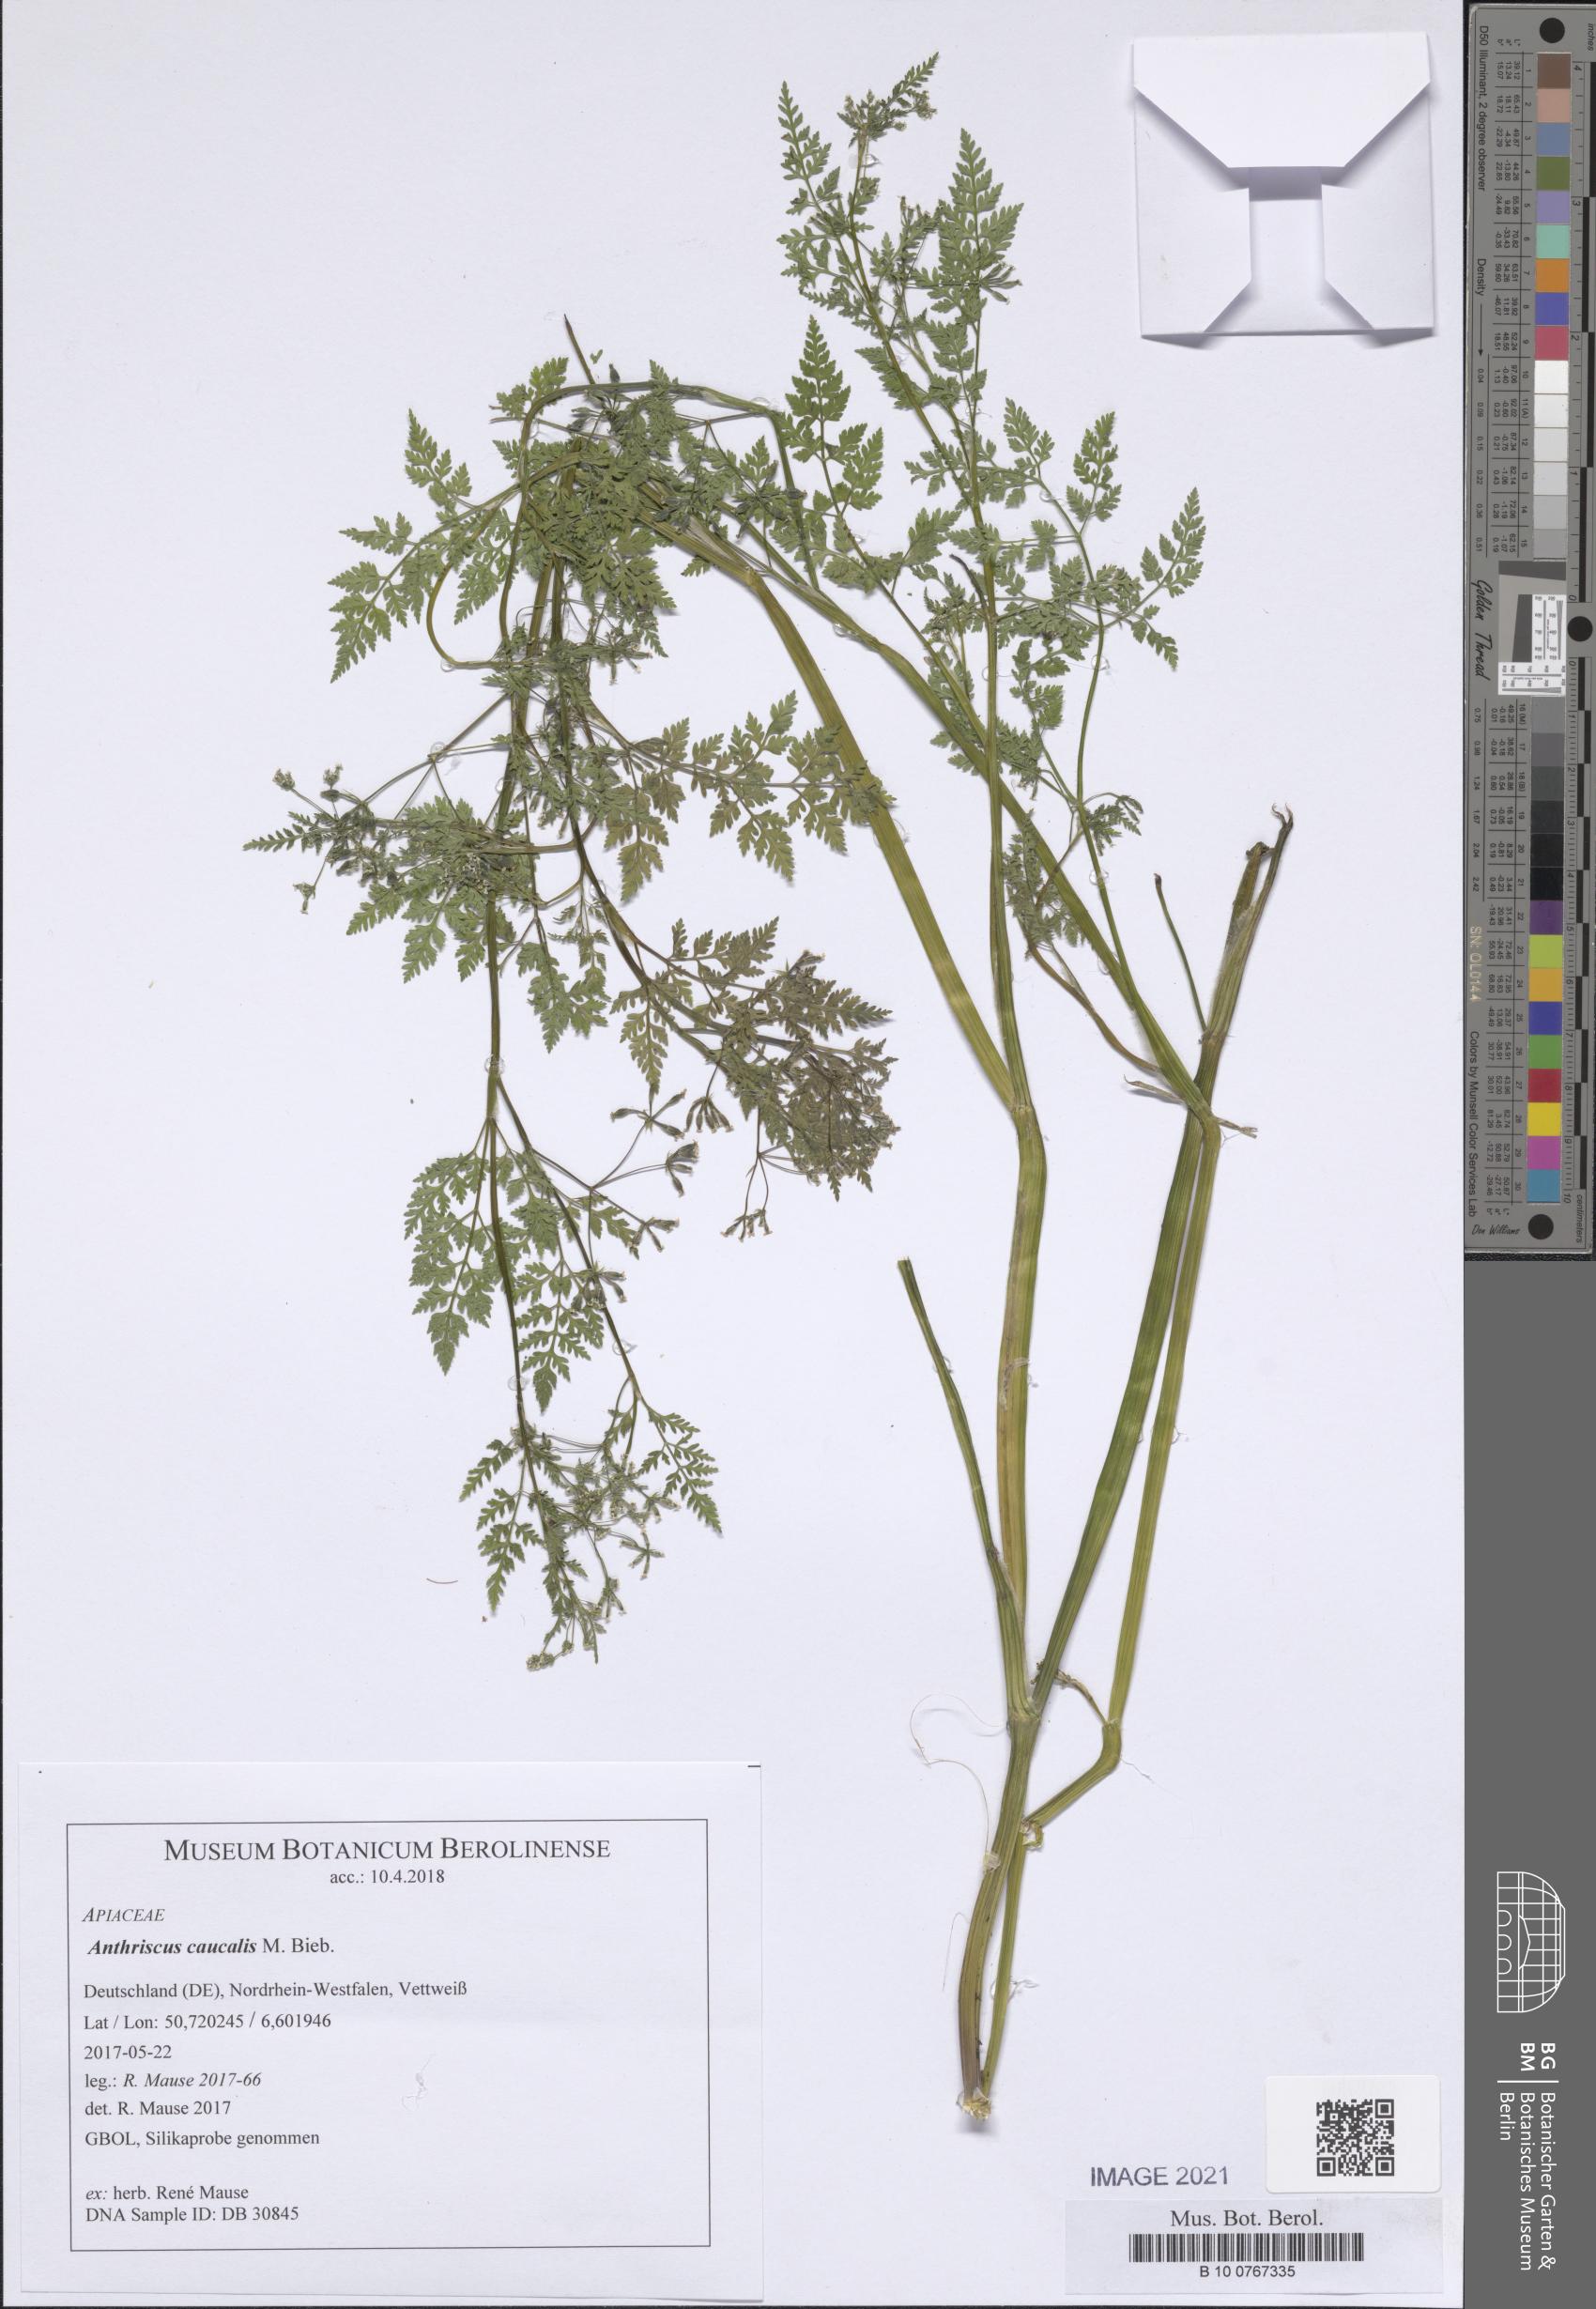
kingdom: Plantae
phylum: Tracheophyta
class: Magnoliopsida
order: Apiales
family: Apiaceae
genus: Anthriscus
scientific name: Anthriscus caucalis
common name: Bur chervil
